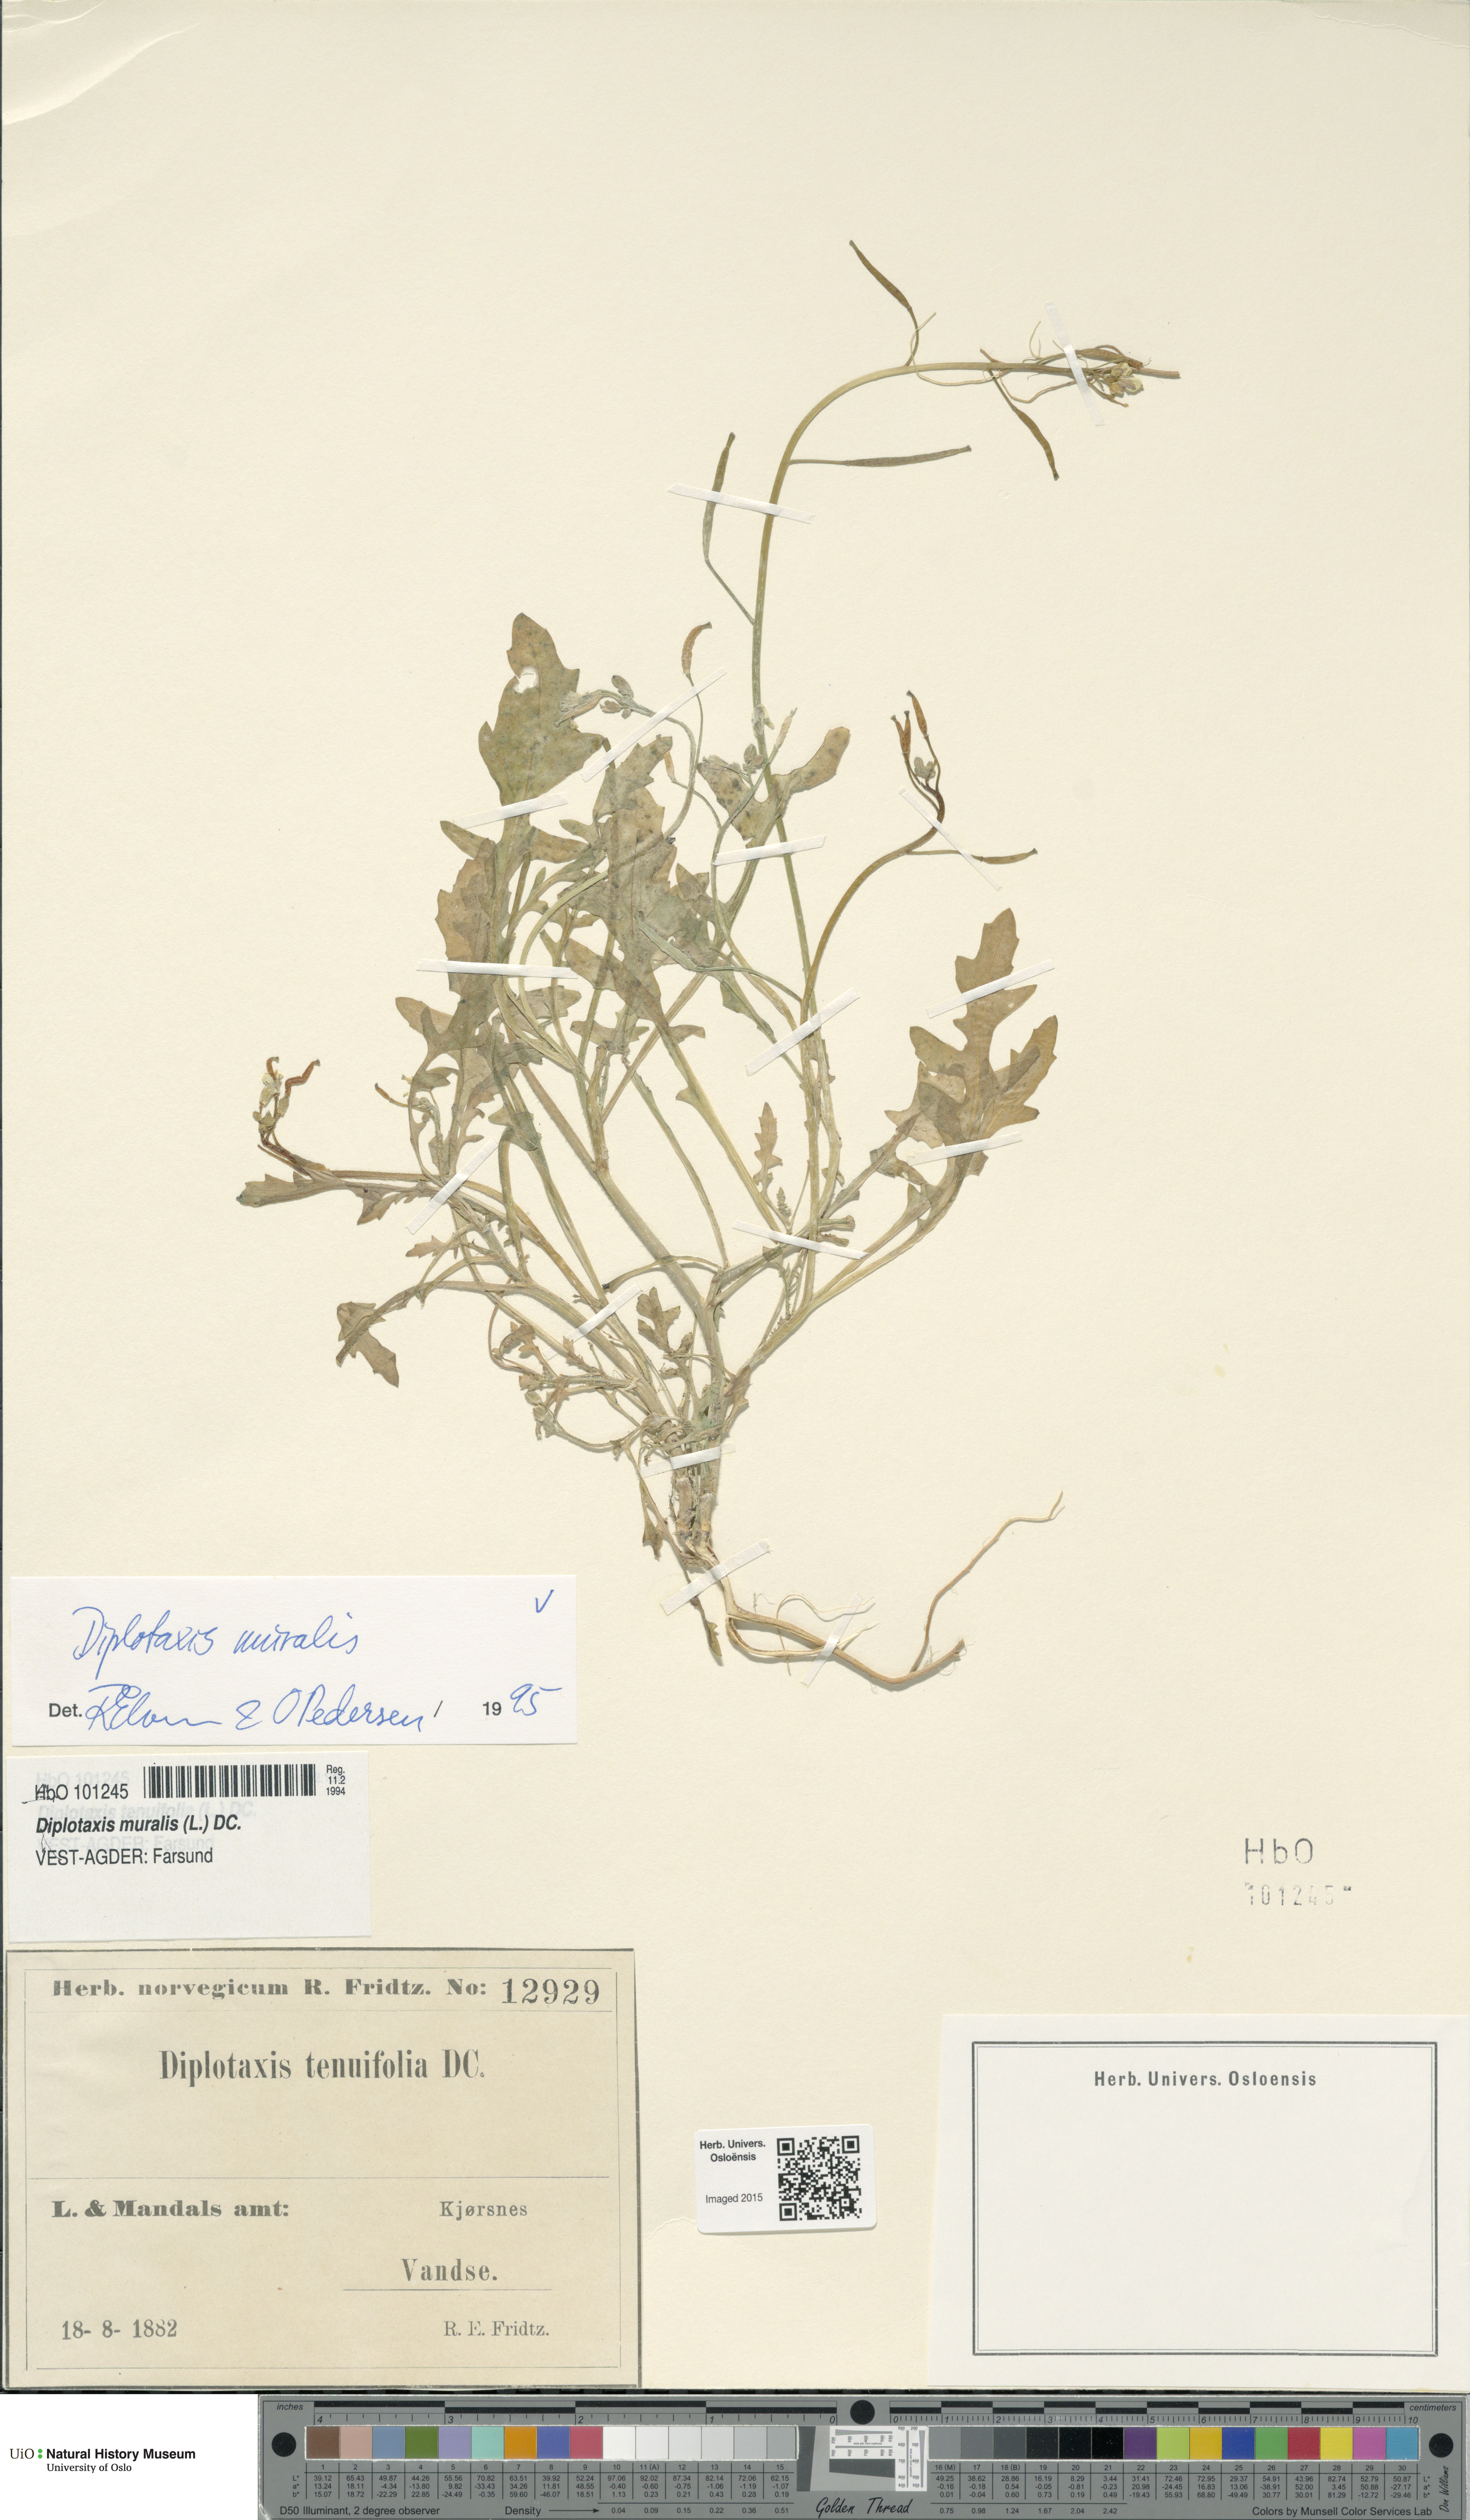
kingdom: Plantae
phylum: Tracheophyta
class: Magnoliopsida
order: Brassicales
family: Brassicaceae
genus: Diplotaxis
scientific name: Diplotaxis muralis
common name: Annual wall-rocket
